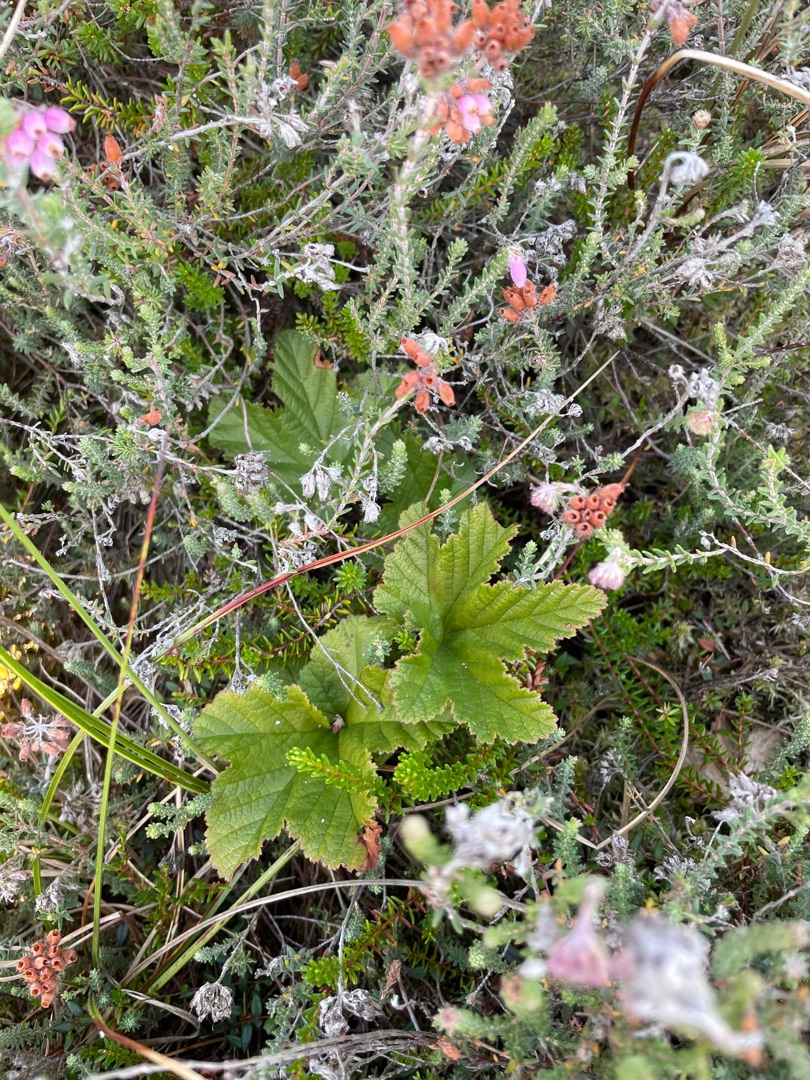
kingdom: Plantae
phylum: Tracheophyta
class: Magnoliopsida
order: Rosales
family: Rosaceae
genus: Rubus
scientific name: Rubus chamaemorus
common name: Multebær
